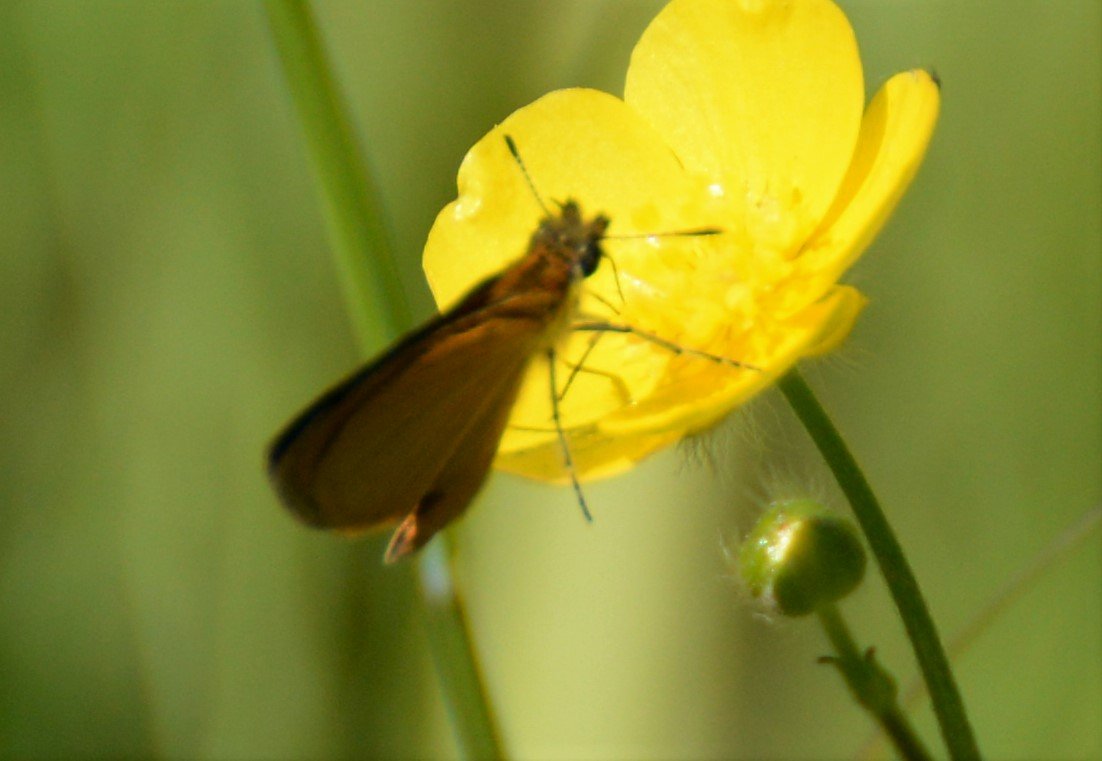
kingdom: Animalia
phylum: Arthropoda
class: Insecta
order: Lepidoptera
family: Hesperiidae
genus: Ancyloxypha
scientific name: Ancyloxypha numitor
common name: Least Skipper
